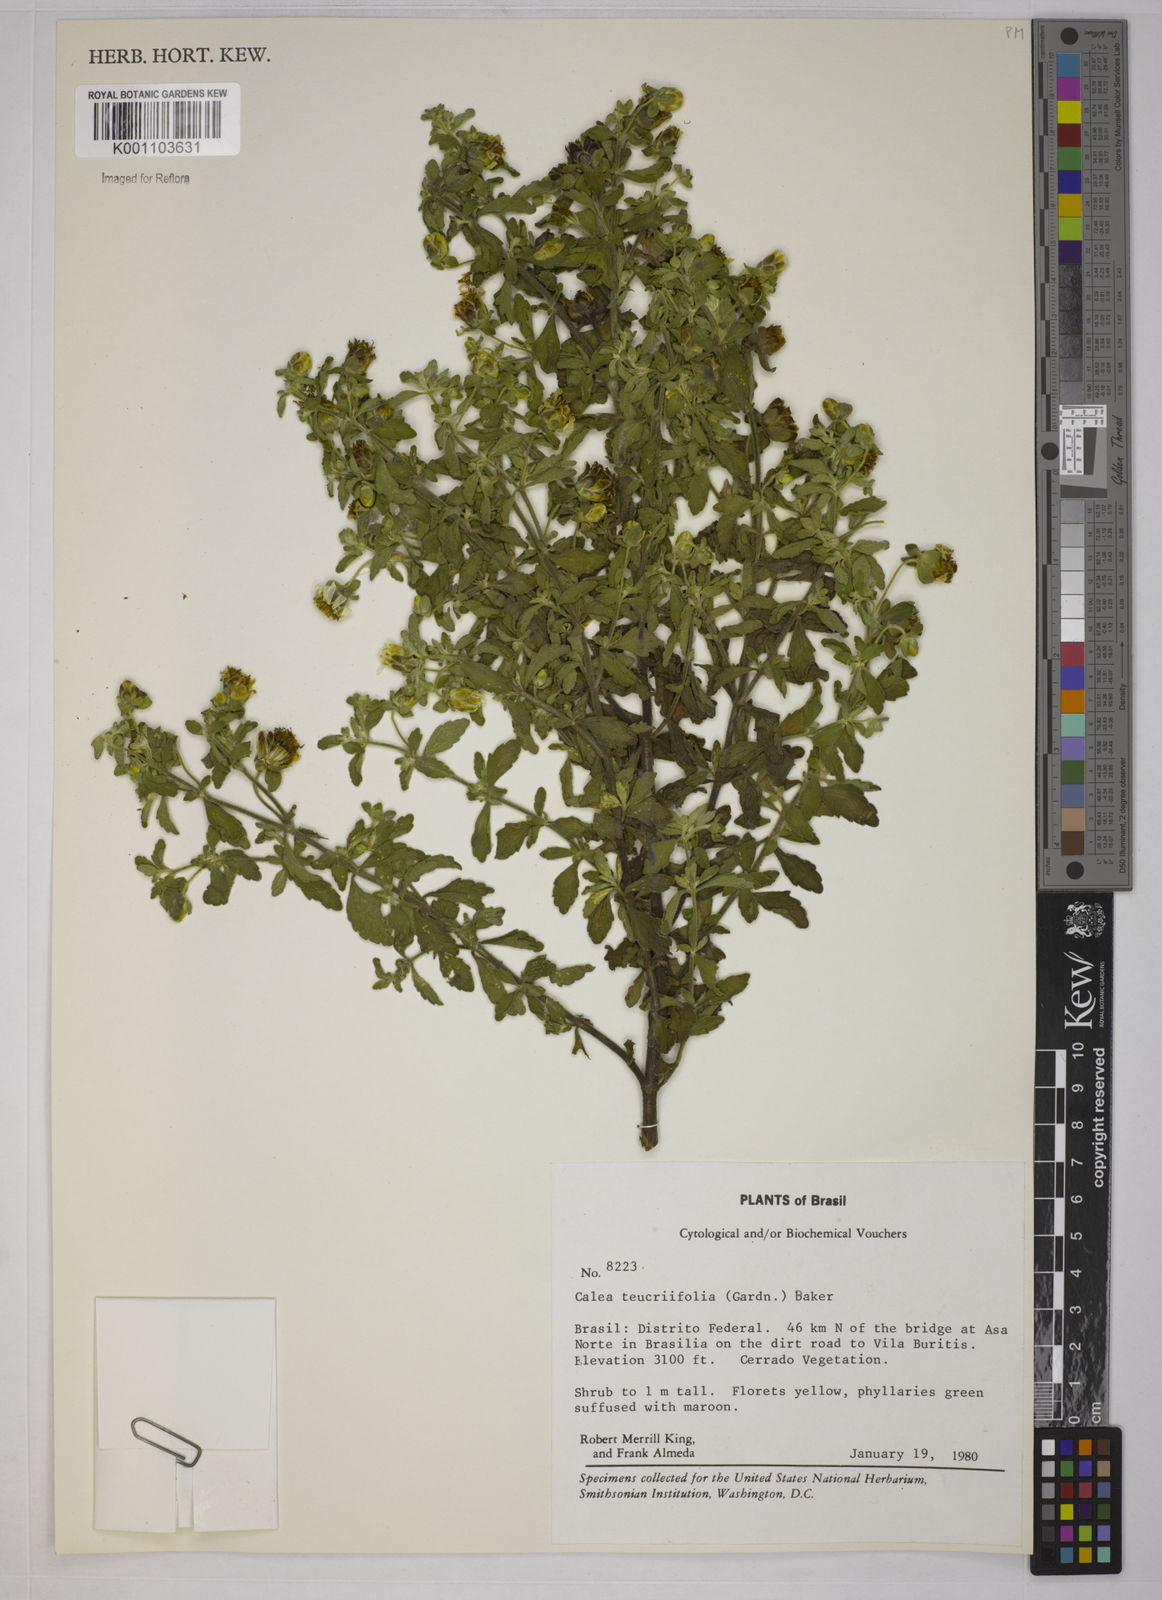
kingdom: Plantae
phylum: Tracheophyta
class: Magnoliopsida
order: Asterales
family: Asteraceae
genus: Calea
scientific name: Calea teucriifolia
